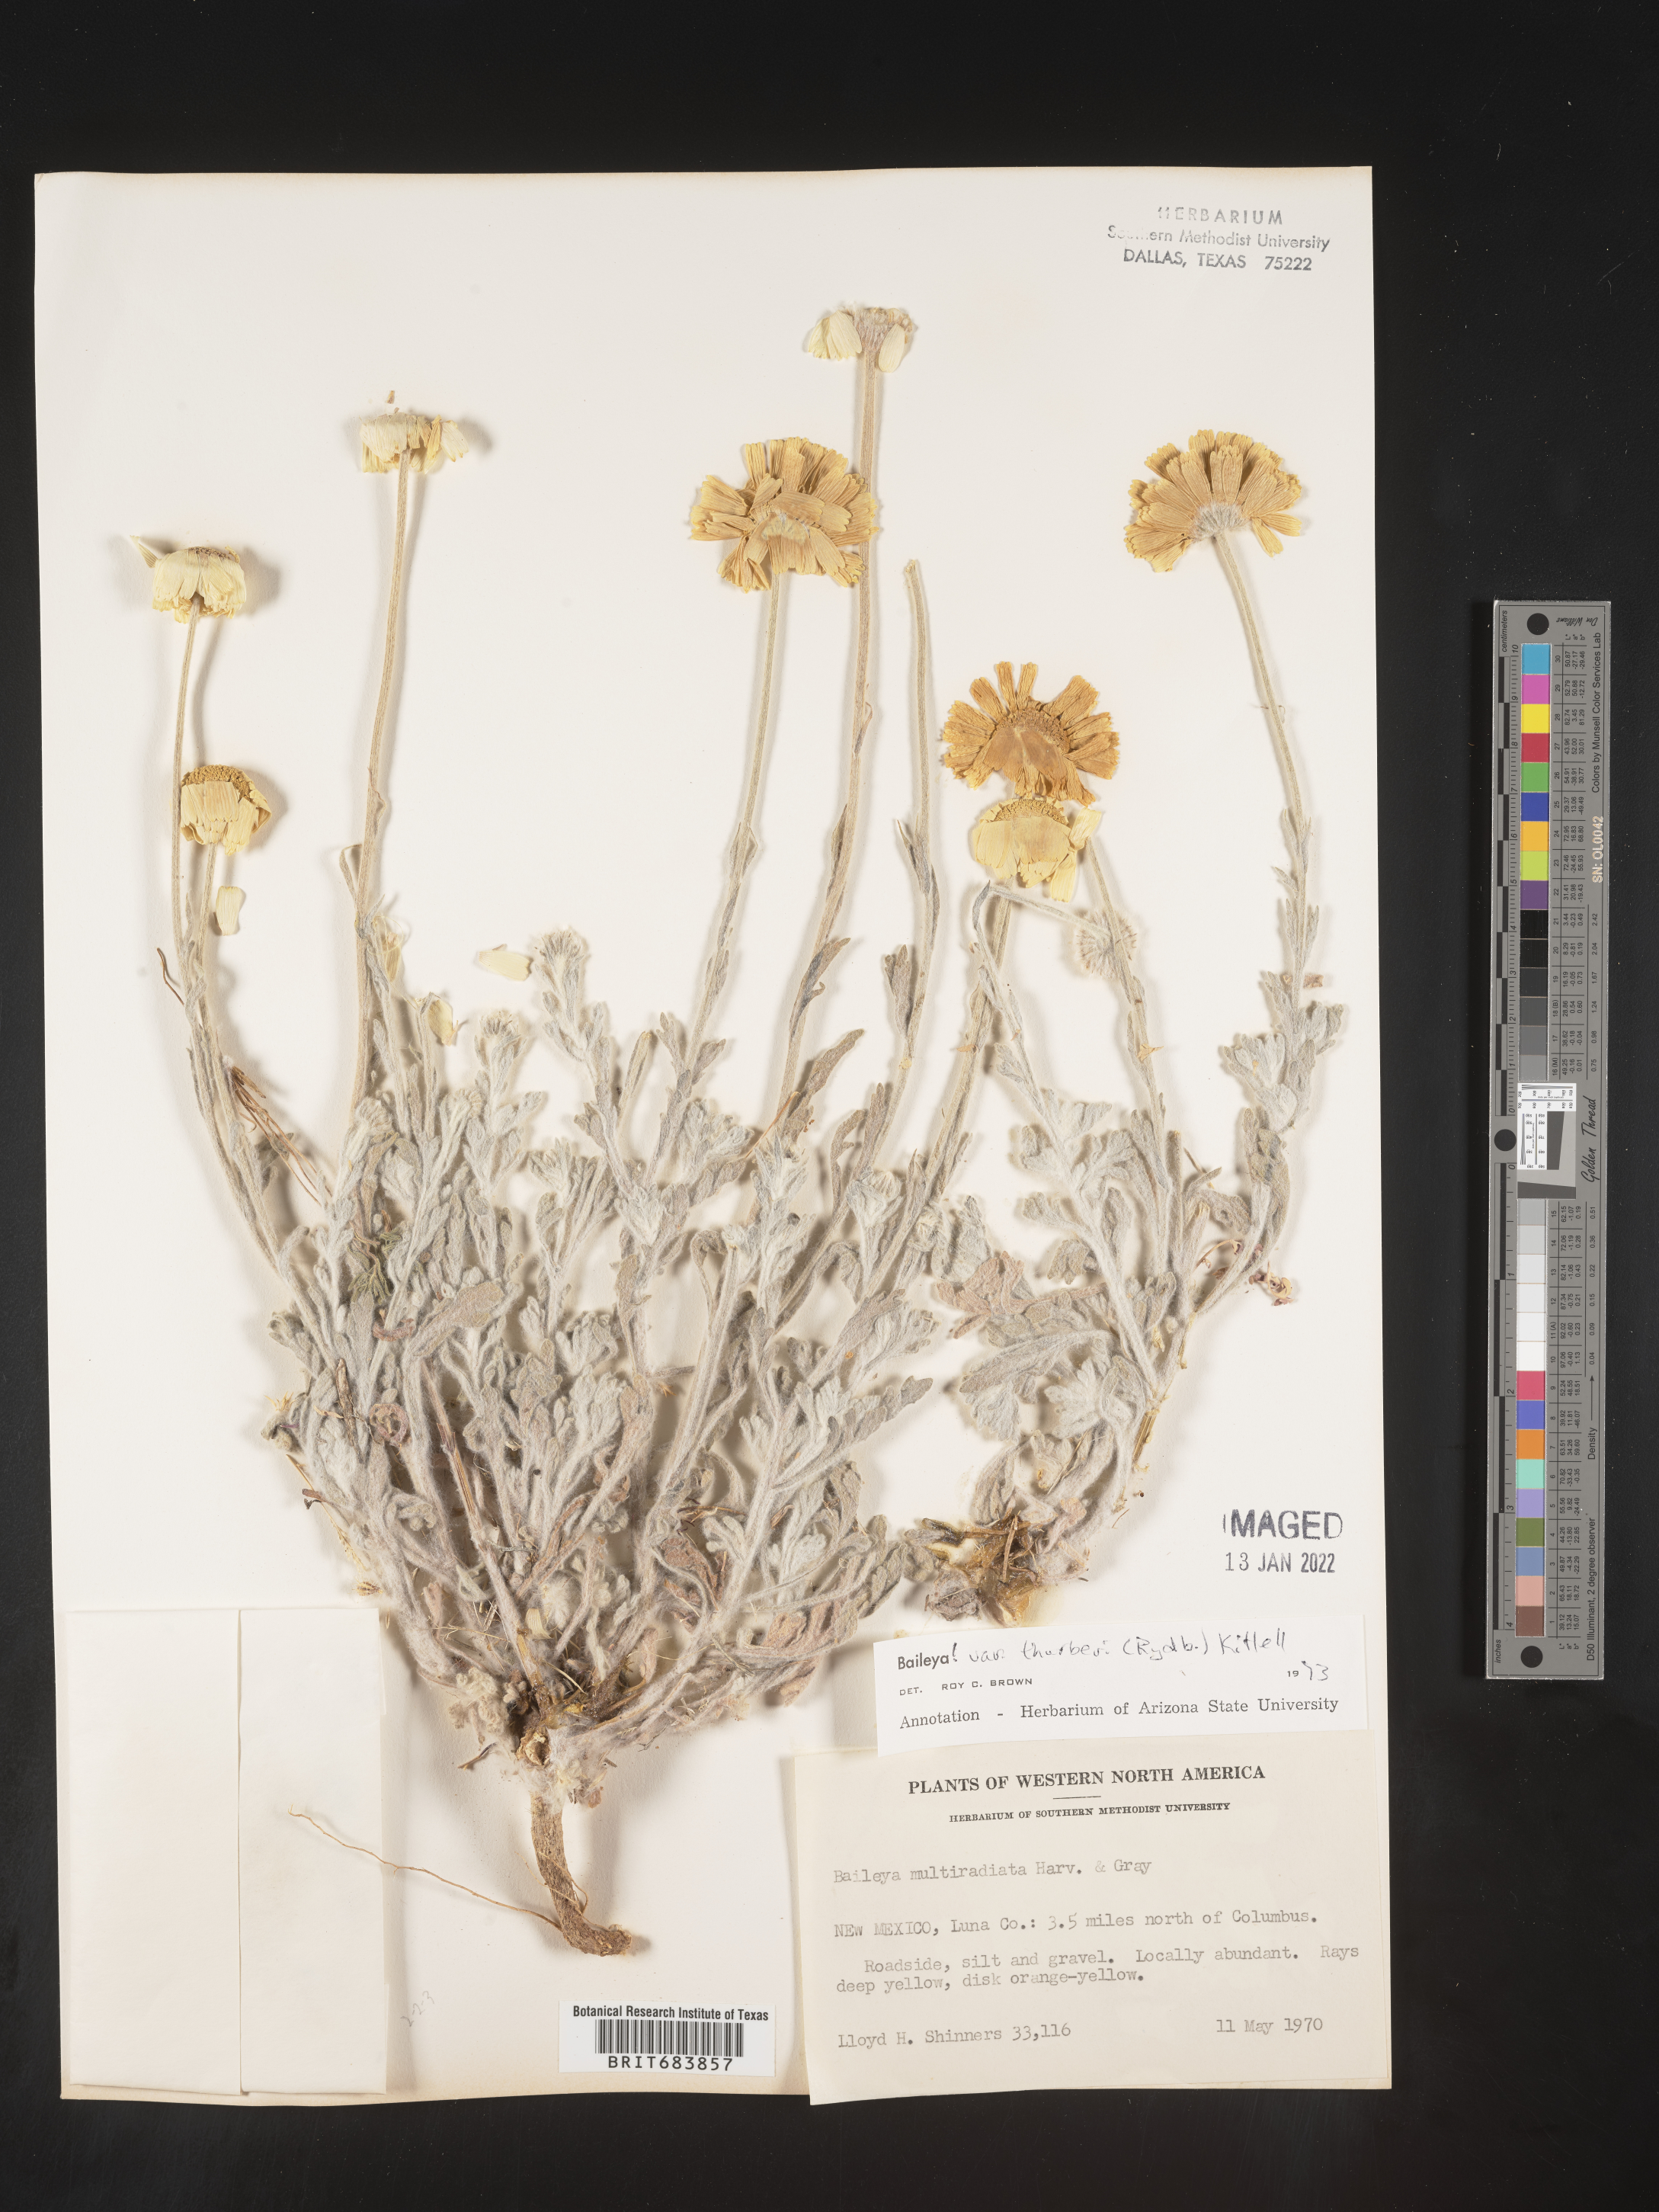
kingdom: Plantae
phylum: Tracheophyta
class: Magnoliopsida
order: Asterales
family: Asteraceae
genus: Baileya
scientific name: Baileya multiradiata
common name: Desert-marigold
